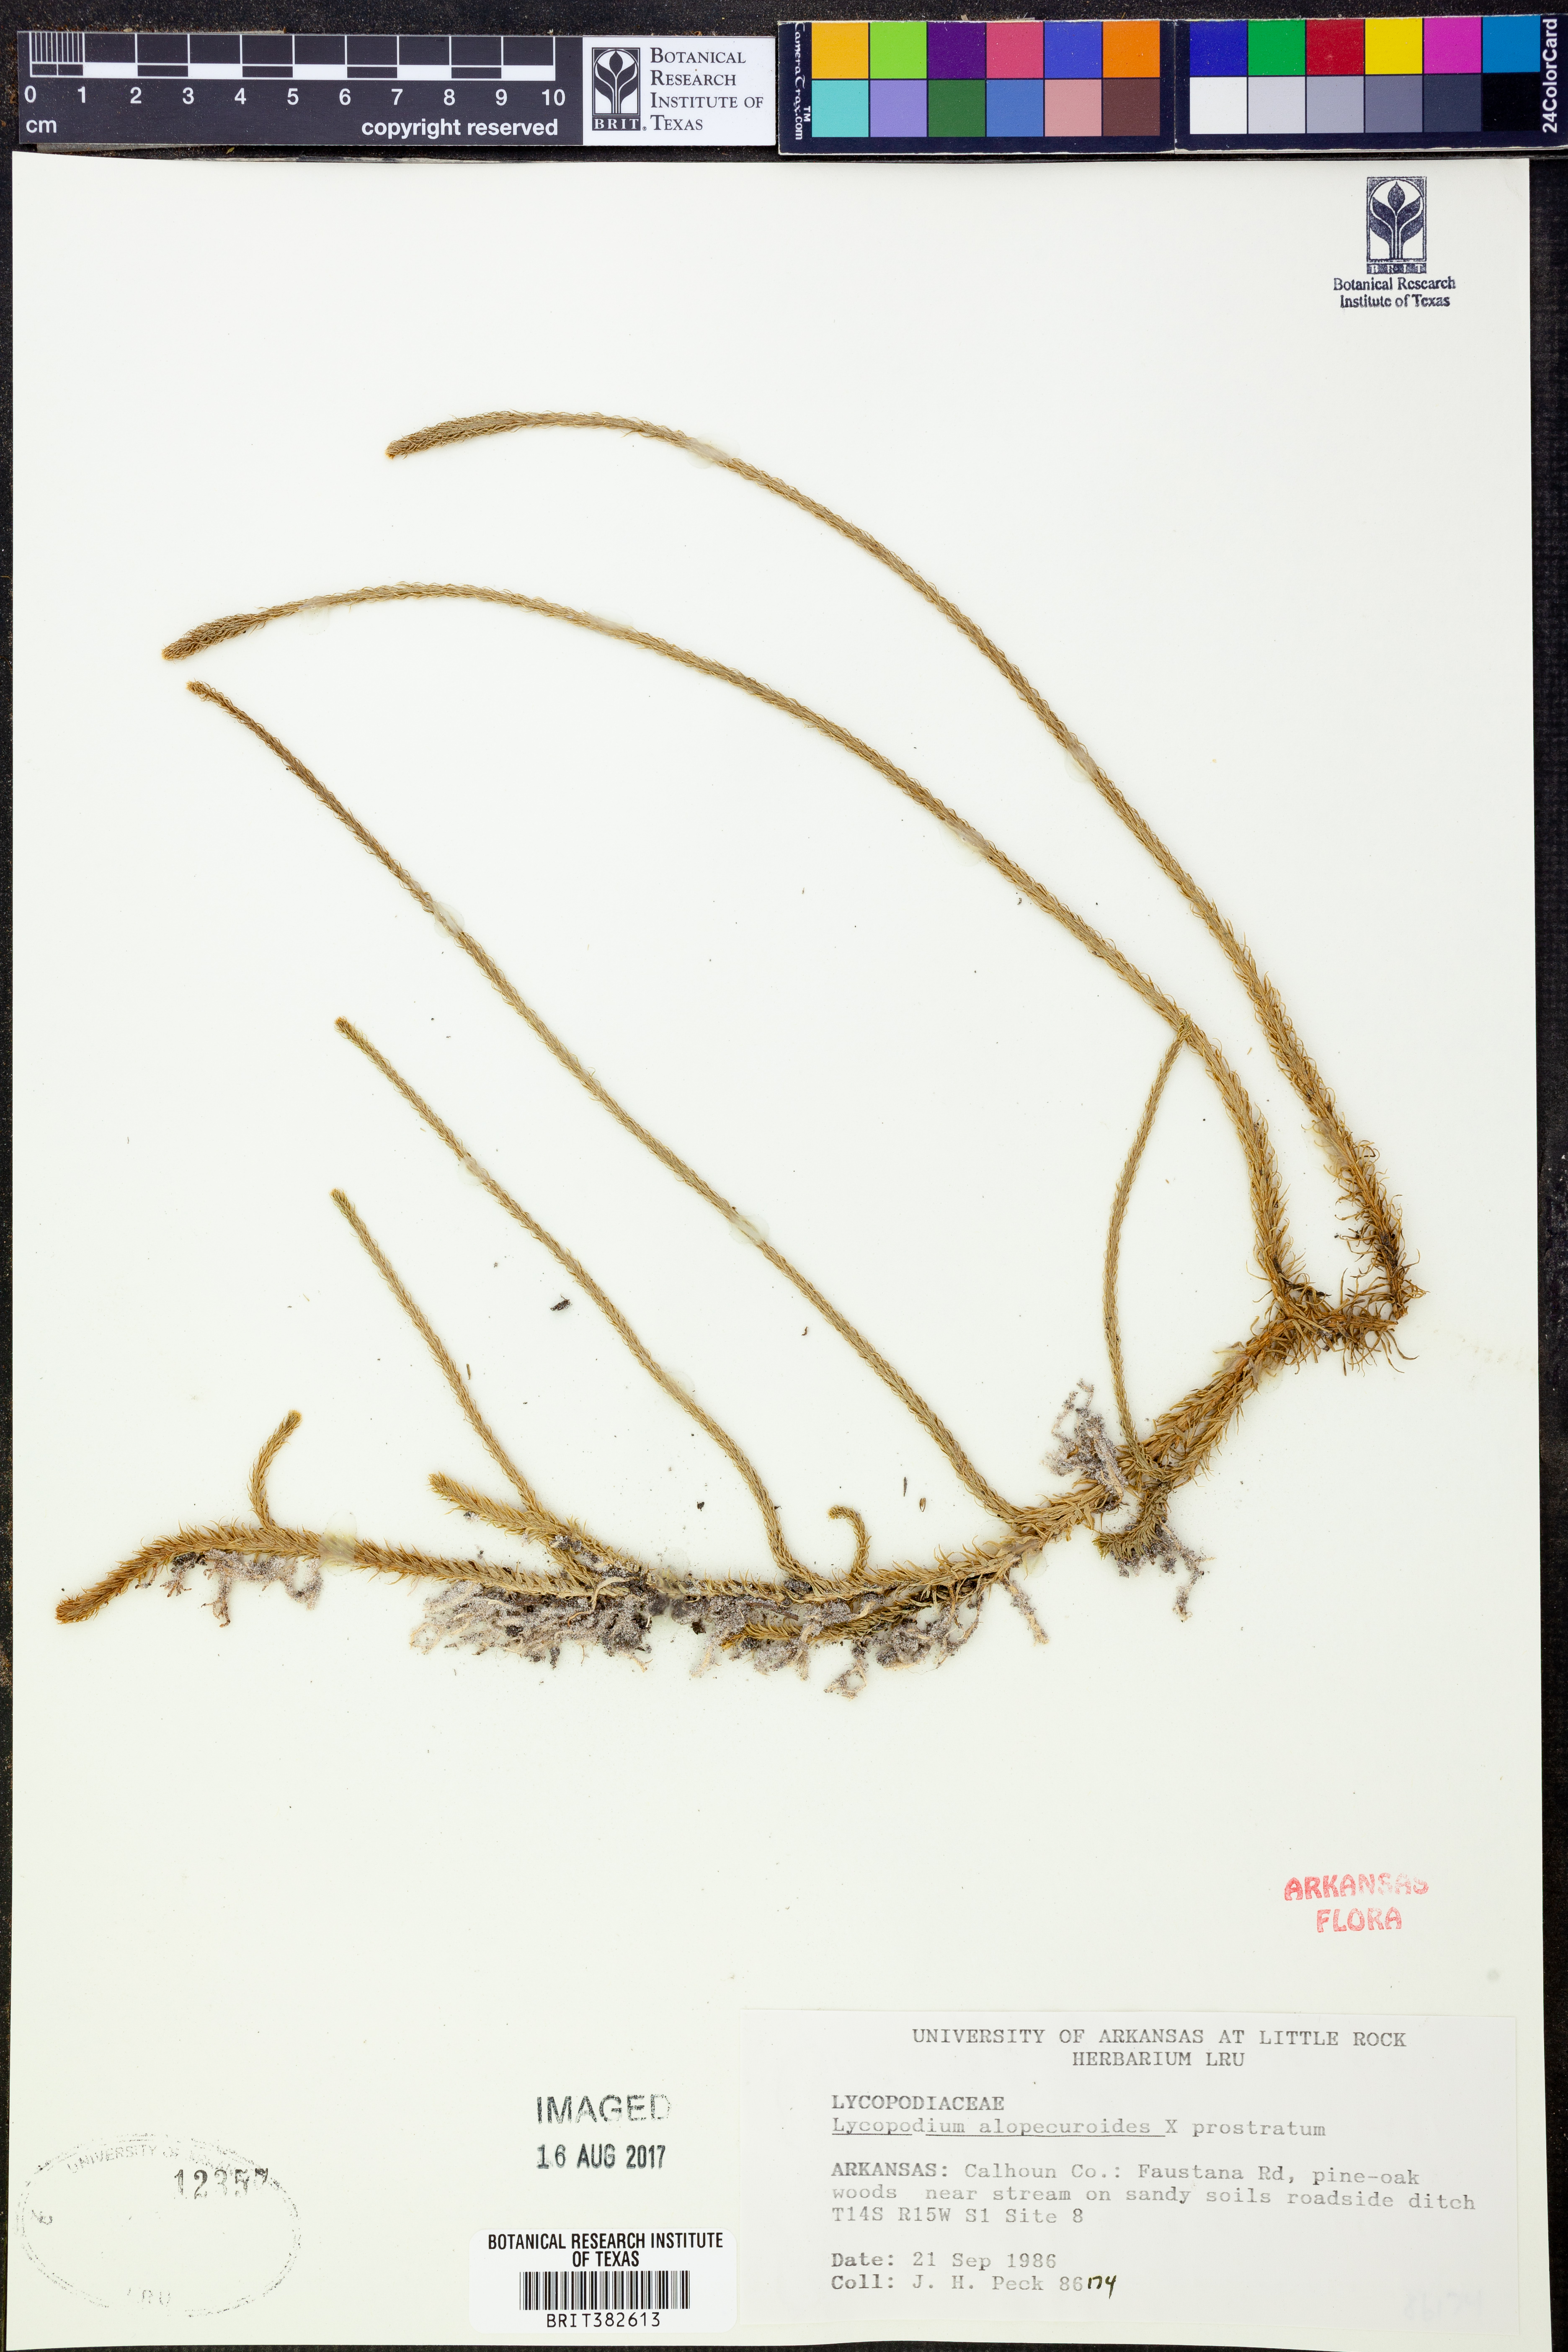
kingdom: Plantae
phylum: Tracheophyta
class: Lycopodiopsida
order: Lycopodiales
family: Lycopodiaceae
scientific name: Lycopodiaceae
